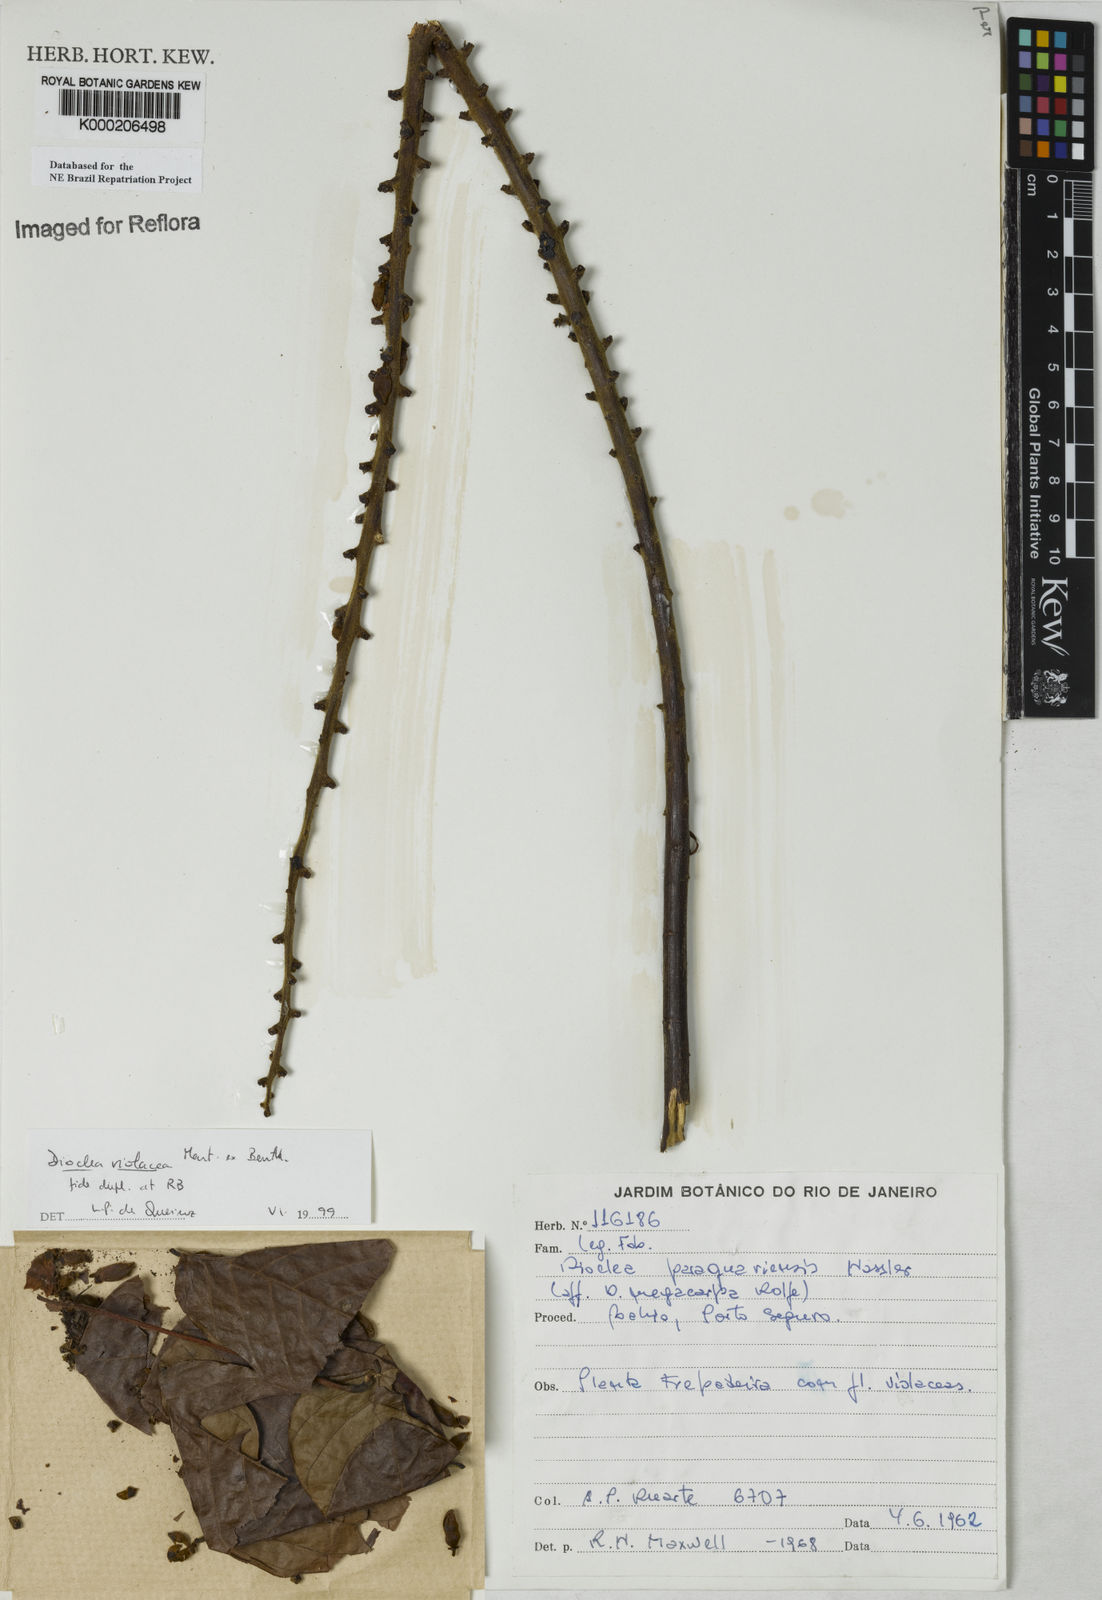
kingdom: Plantae
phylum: Tracheophyta
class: Magnoliopsida
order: Fabales
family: Fabaceae
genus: Macropsychanthus
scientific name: Macropsychanthus violaceus
